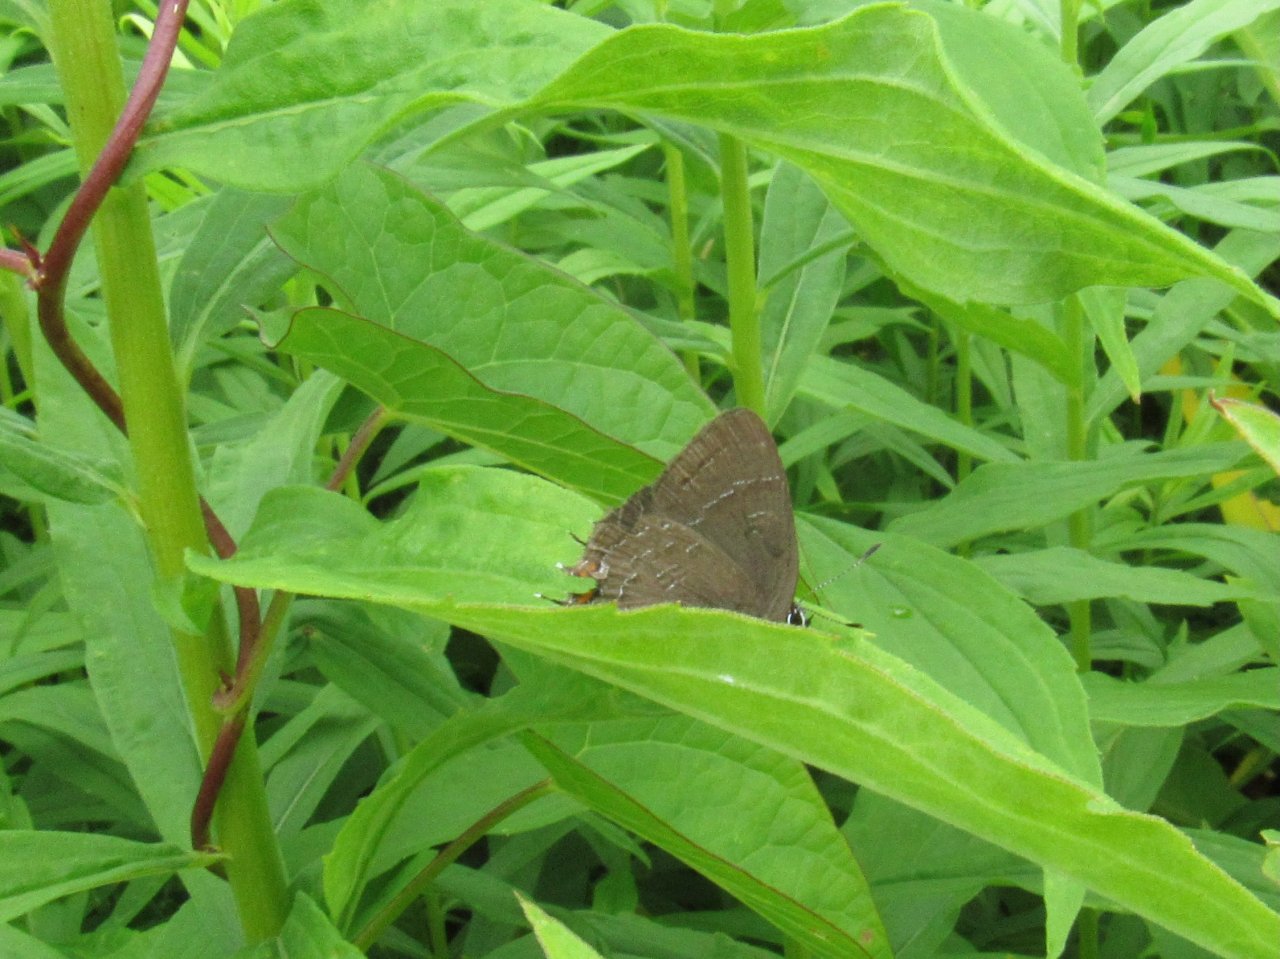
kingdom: Animalia
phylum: Arthropoda
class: Insecta
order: Lepidoptera
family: Lycaenidae
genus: Satyrium
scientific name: Satyrium calanus
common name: Banded Hairstreak
